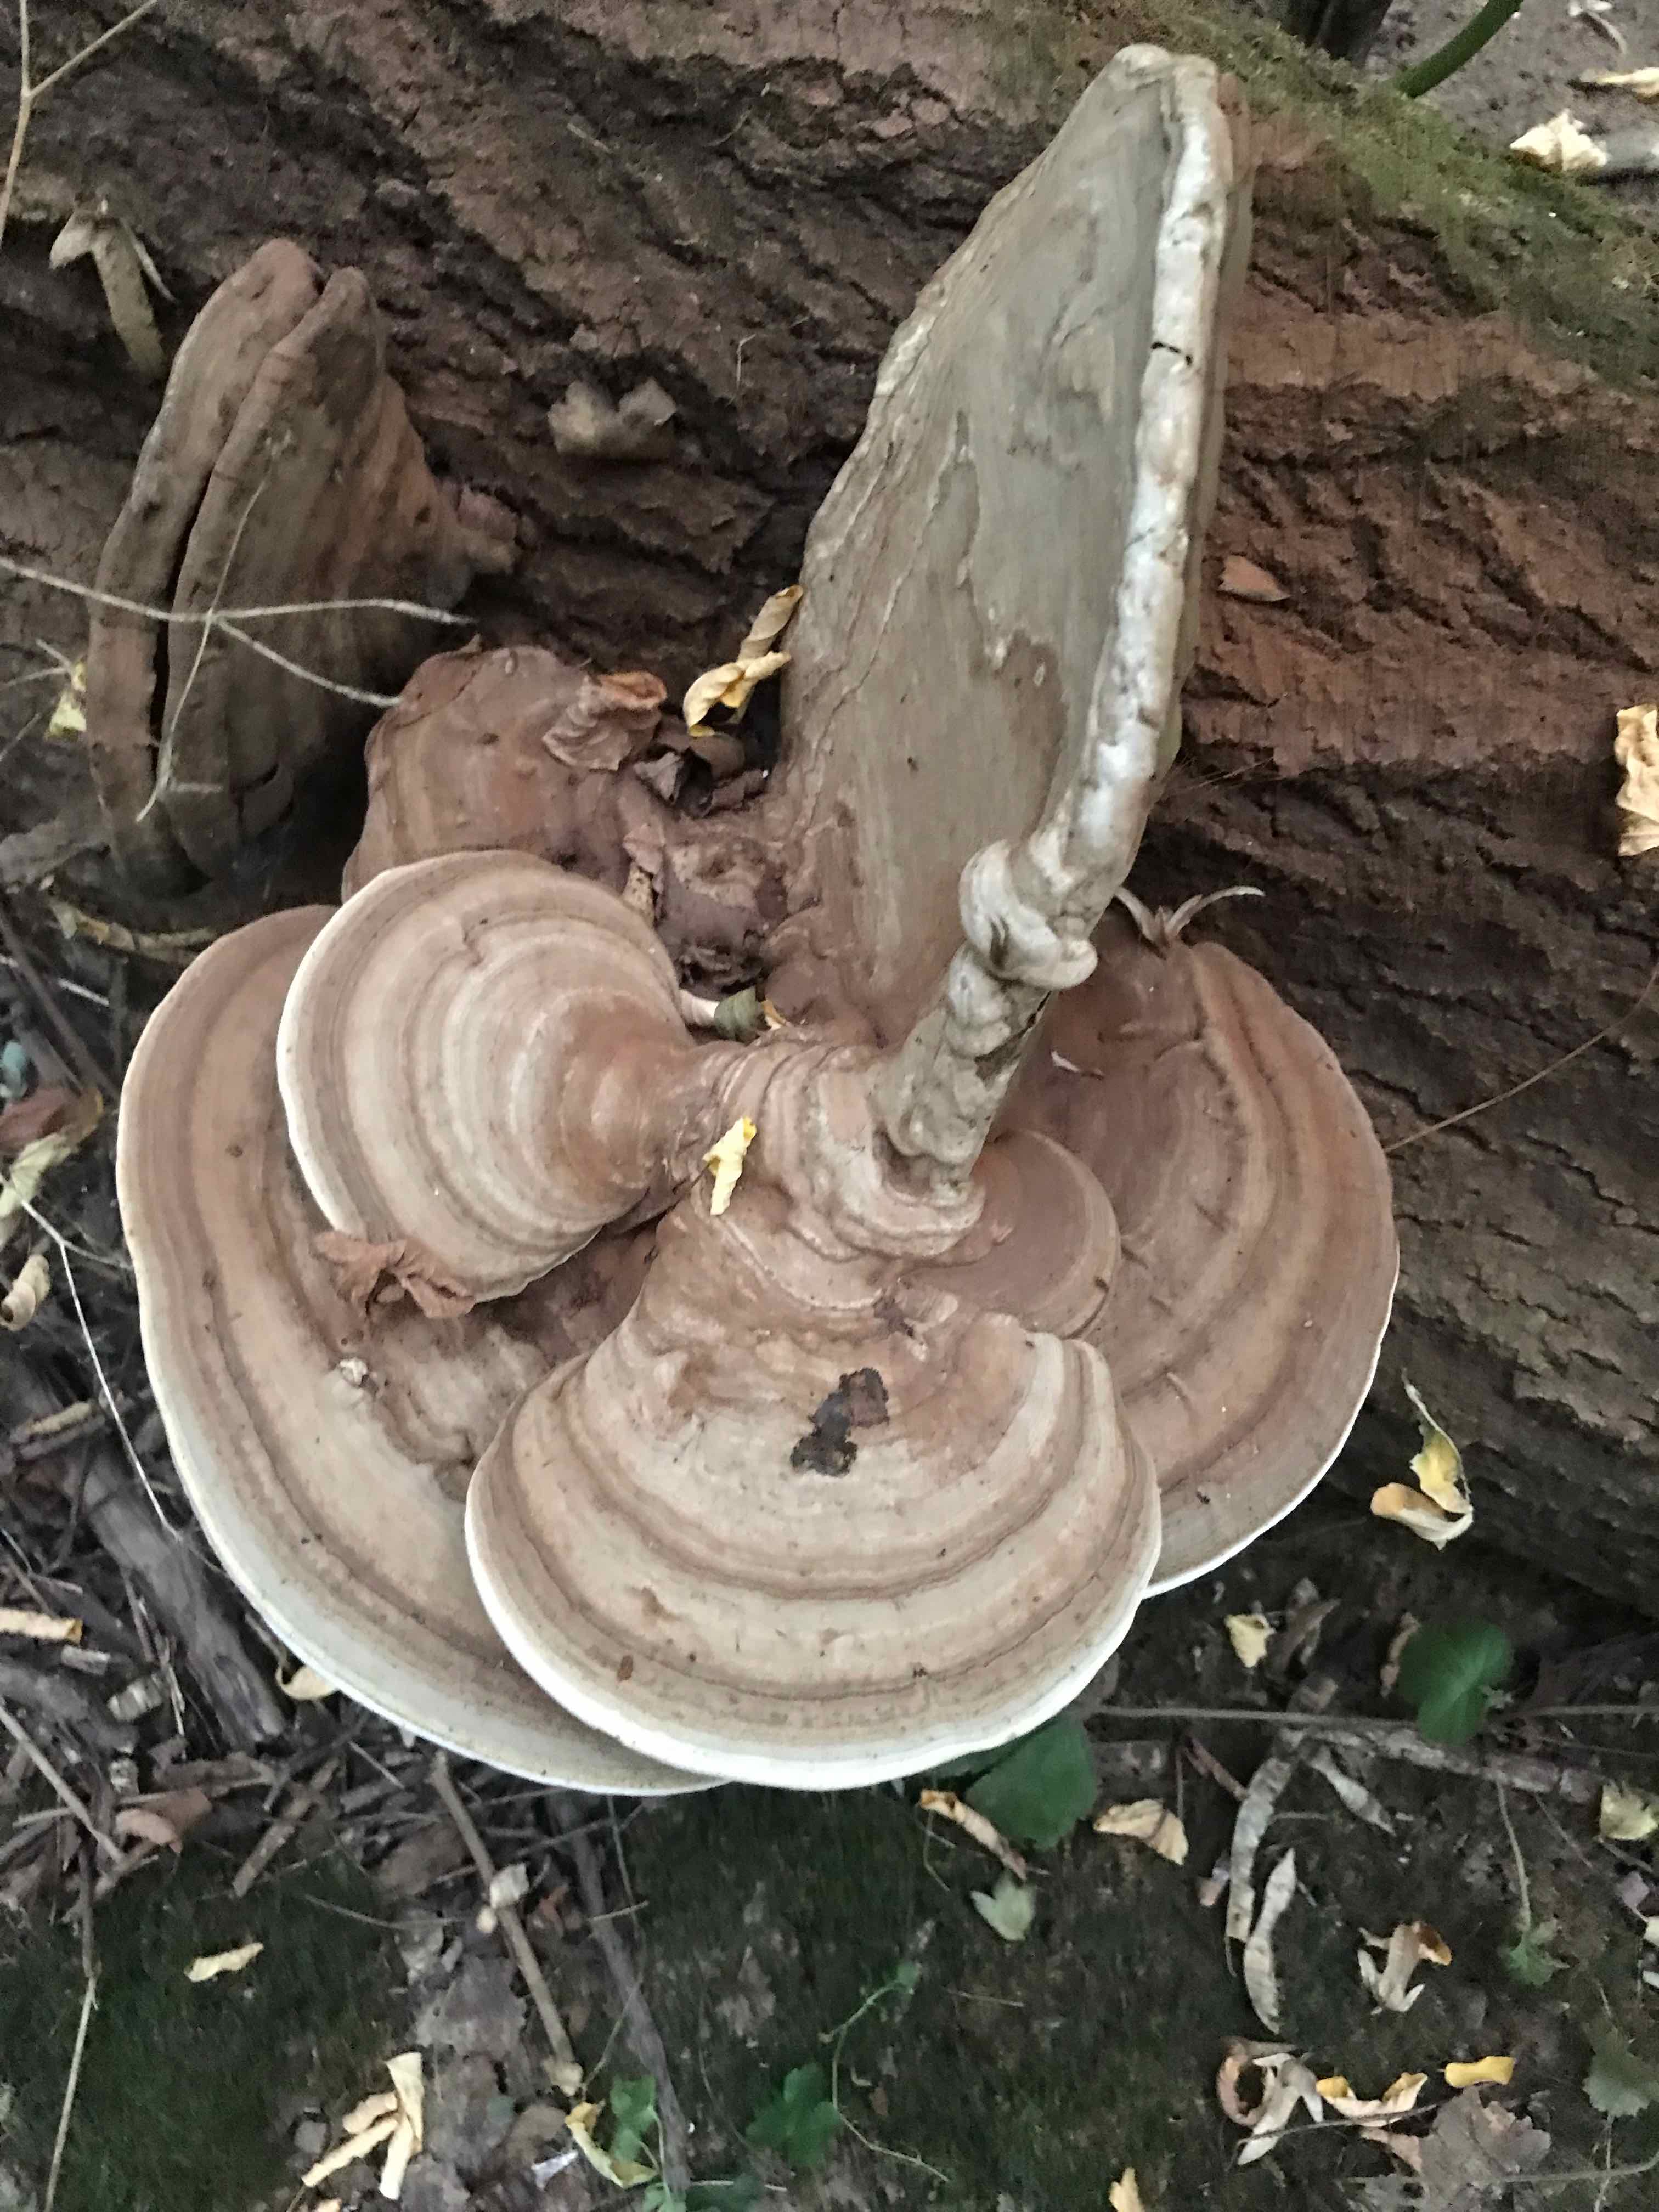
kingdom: Fungi
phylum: Basidiomycota
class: Agaricomycetes
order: Polyporales
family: Polyporaceae
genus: Ganoderma
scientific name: Ganoderma applanatum
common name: flad lakporesvamp
